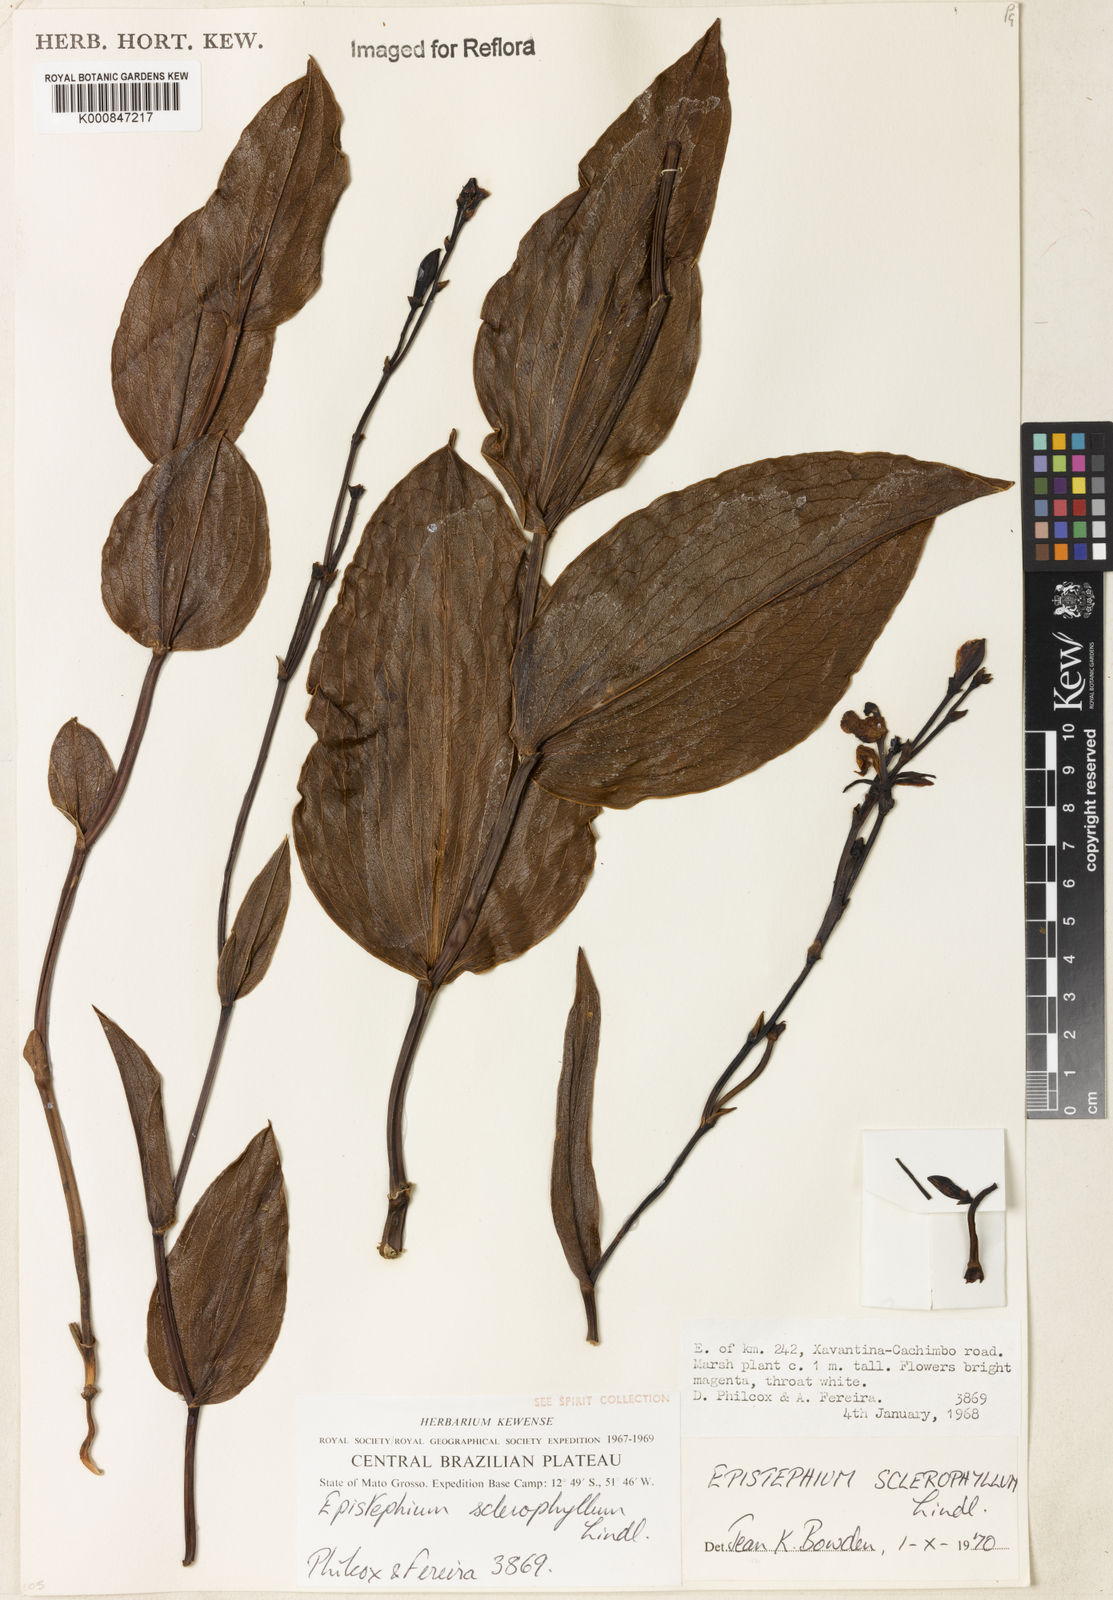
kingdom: Plantae
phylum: Tracheophyta
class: Liliopsida
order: Asparagales
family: Orchidaceae
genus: Epistephium
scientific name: Epistephium sclerophyllum
